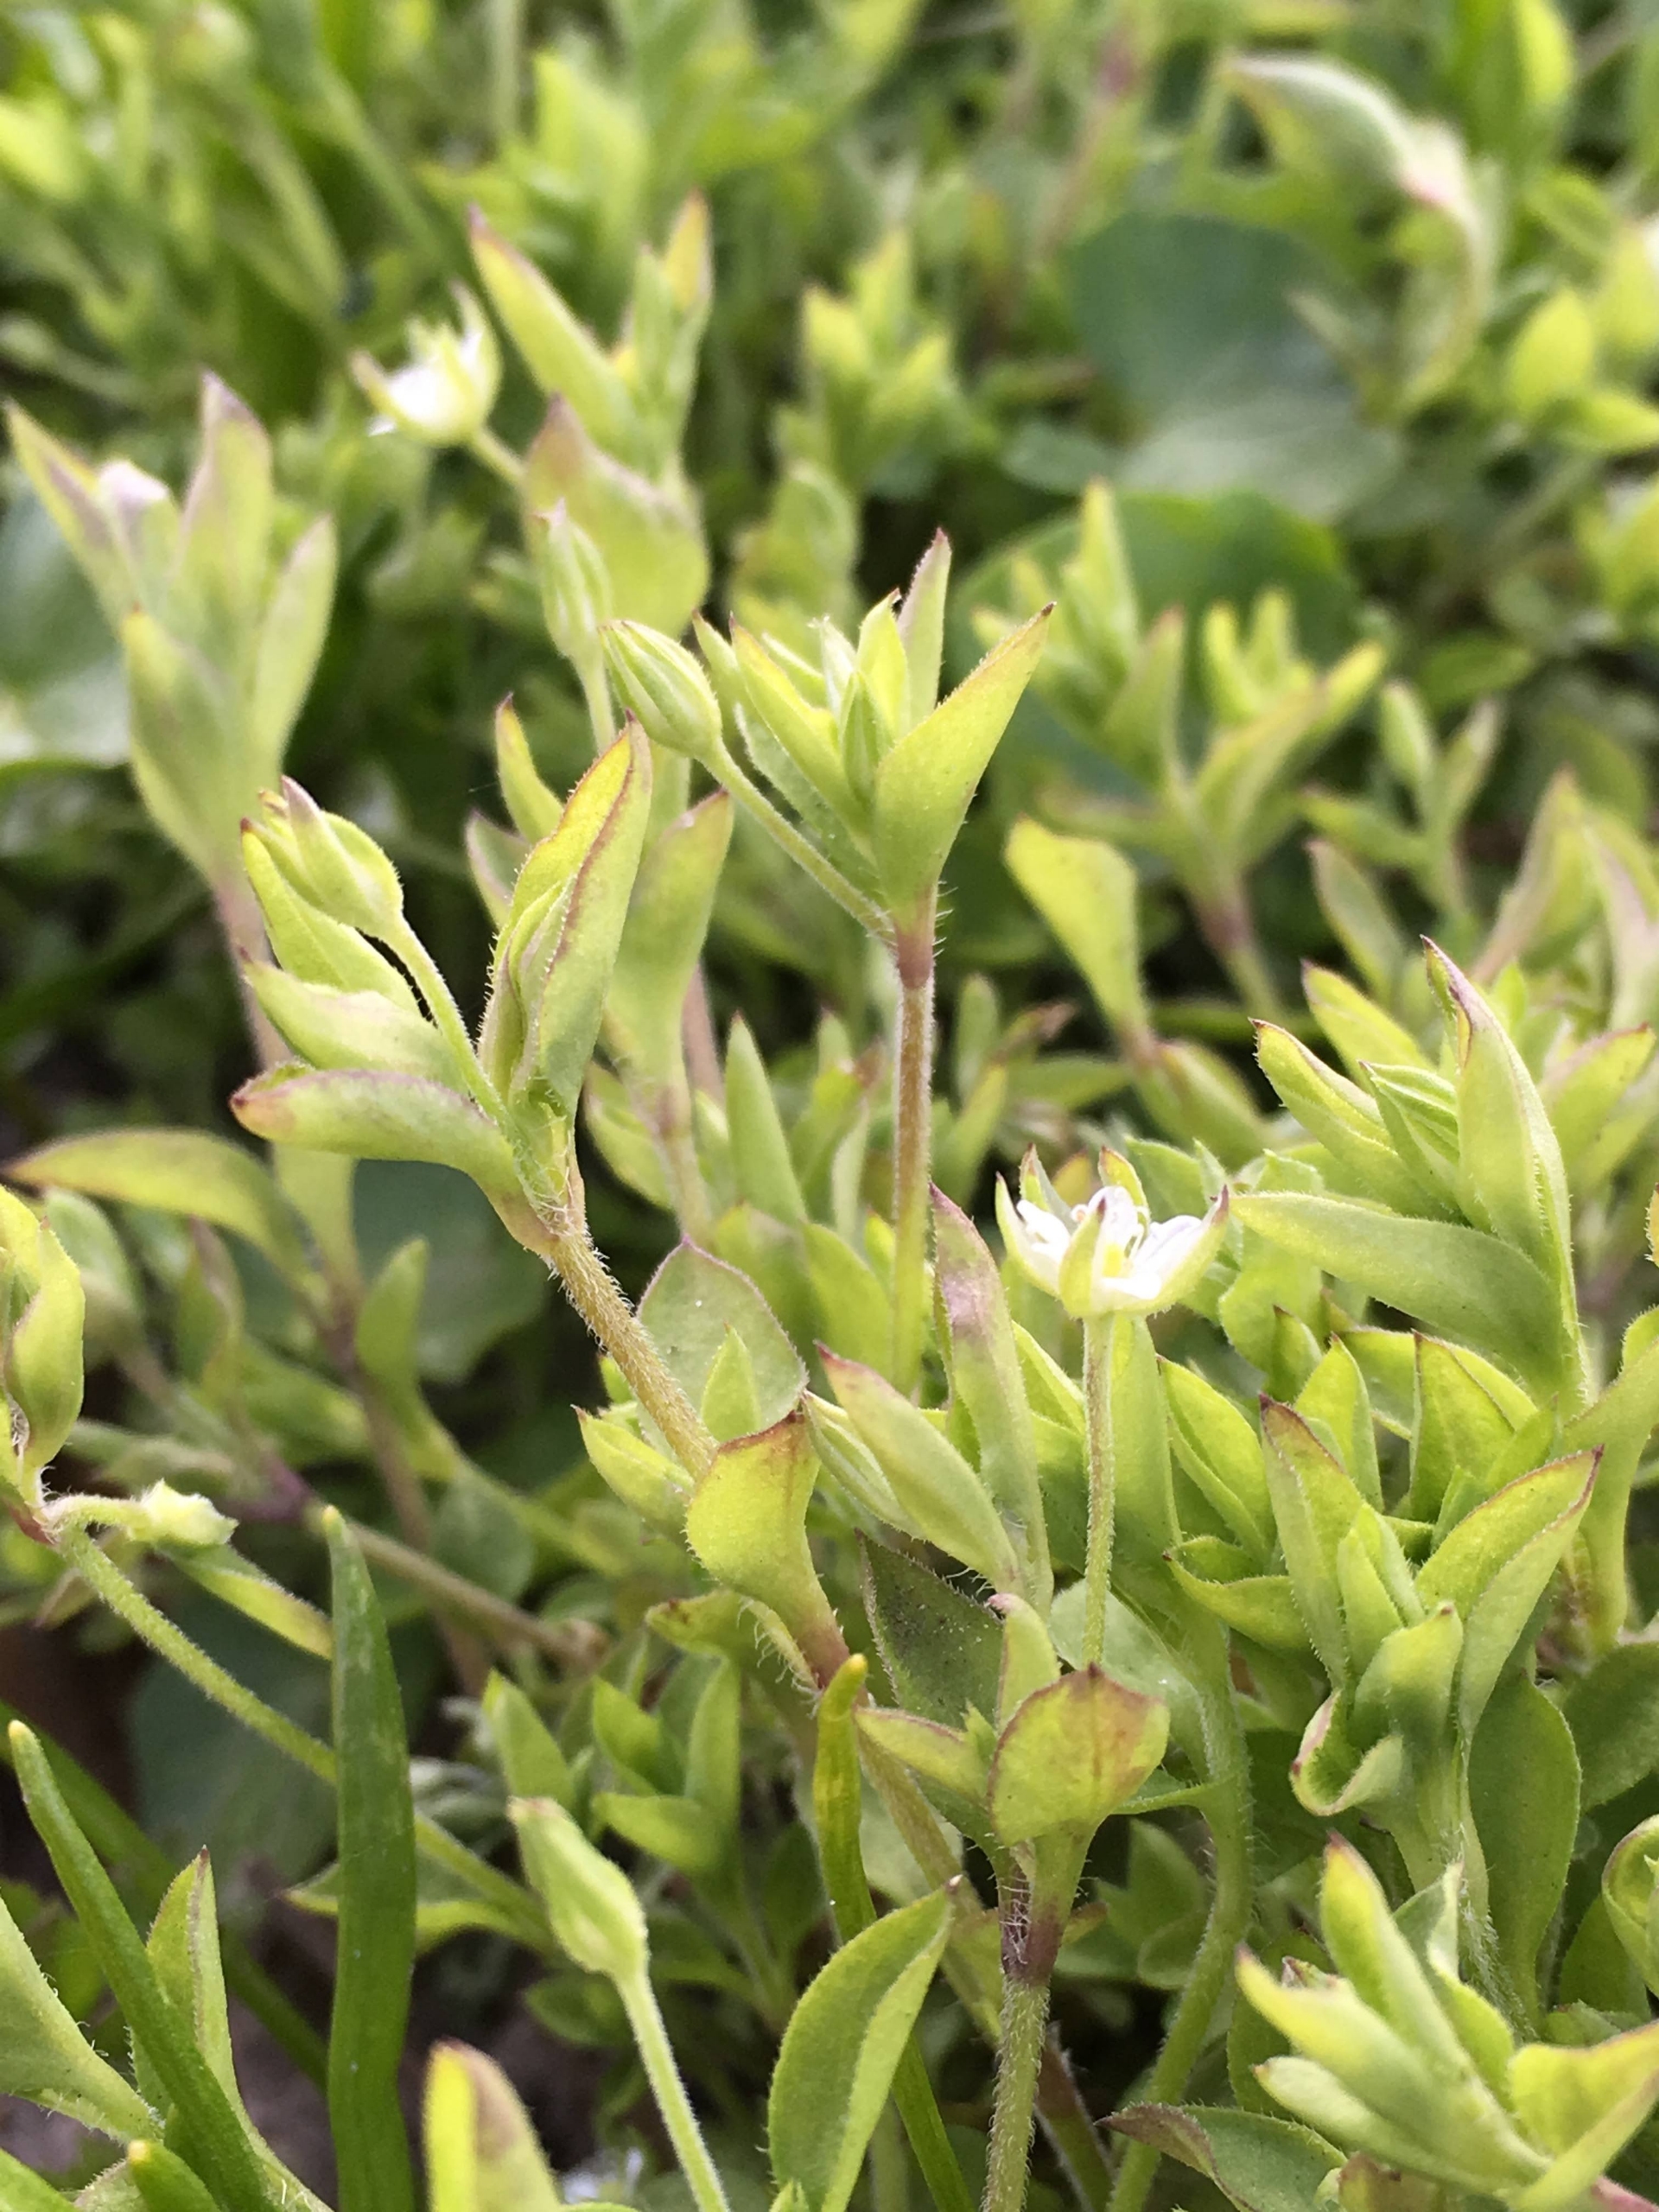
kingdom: Plantae
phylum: Tracheophyta
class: Magnoliopsida
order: Caryophyllales
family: Caryophyllaceae
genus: Moehringia
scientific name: Moehringia trinervia
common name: Skovarve
